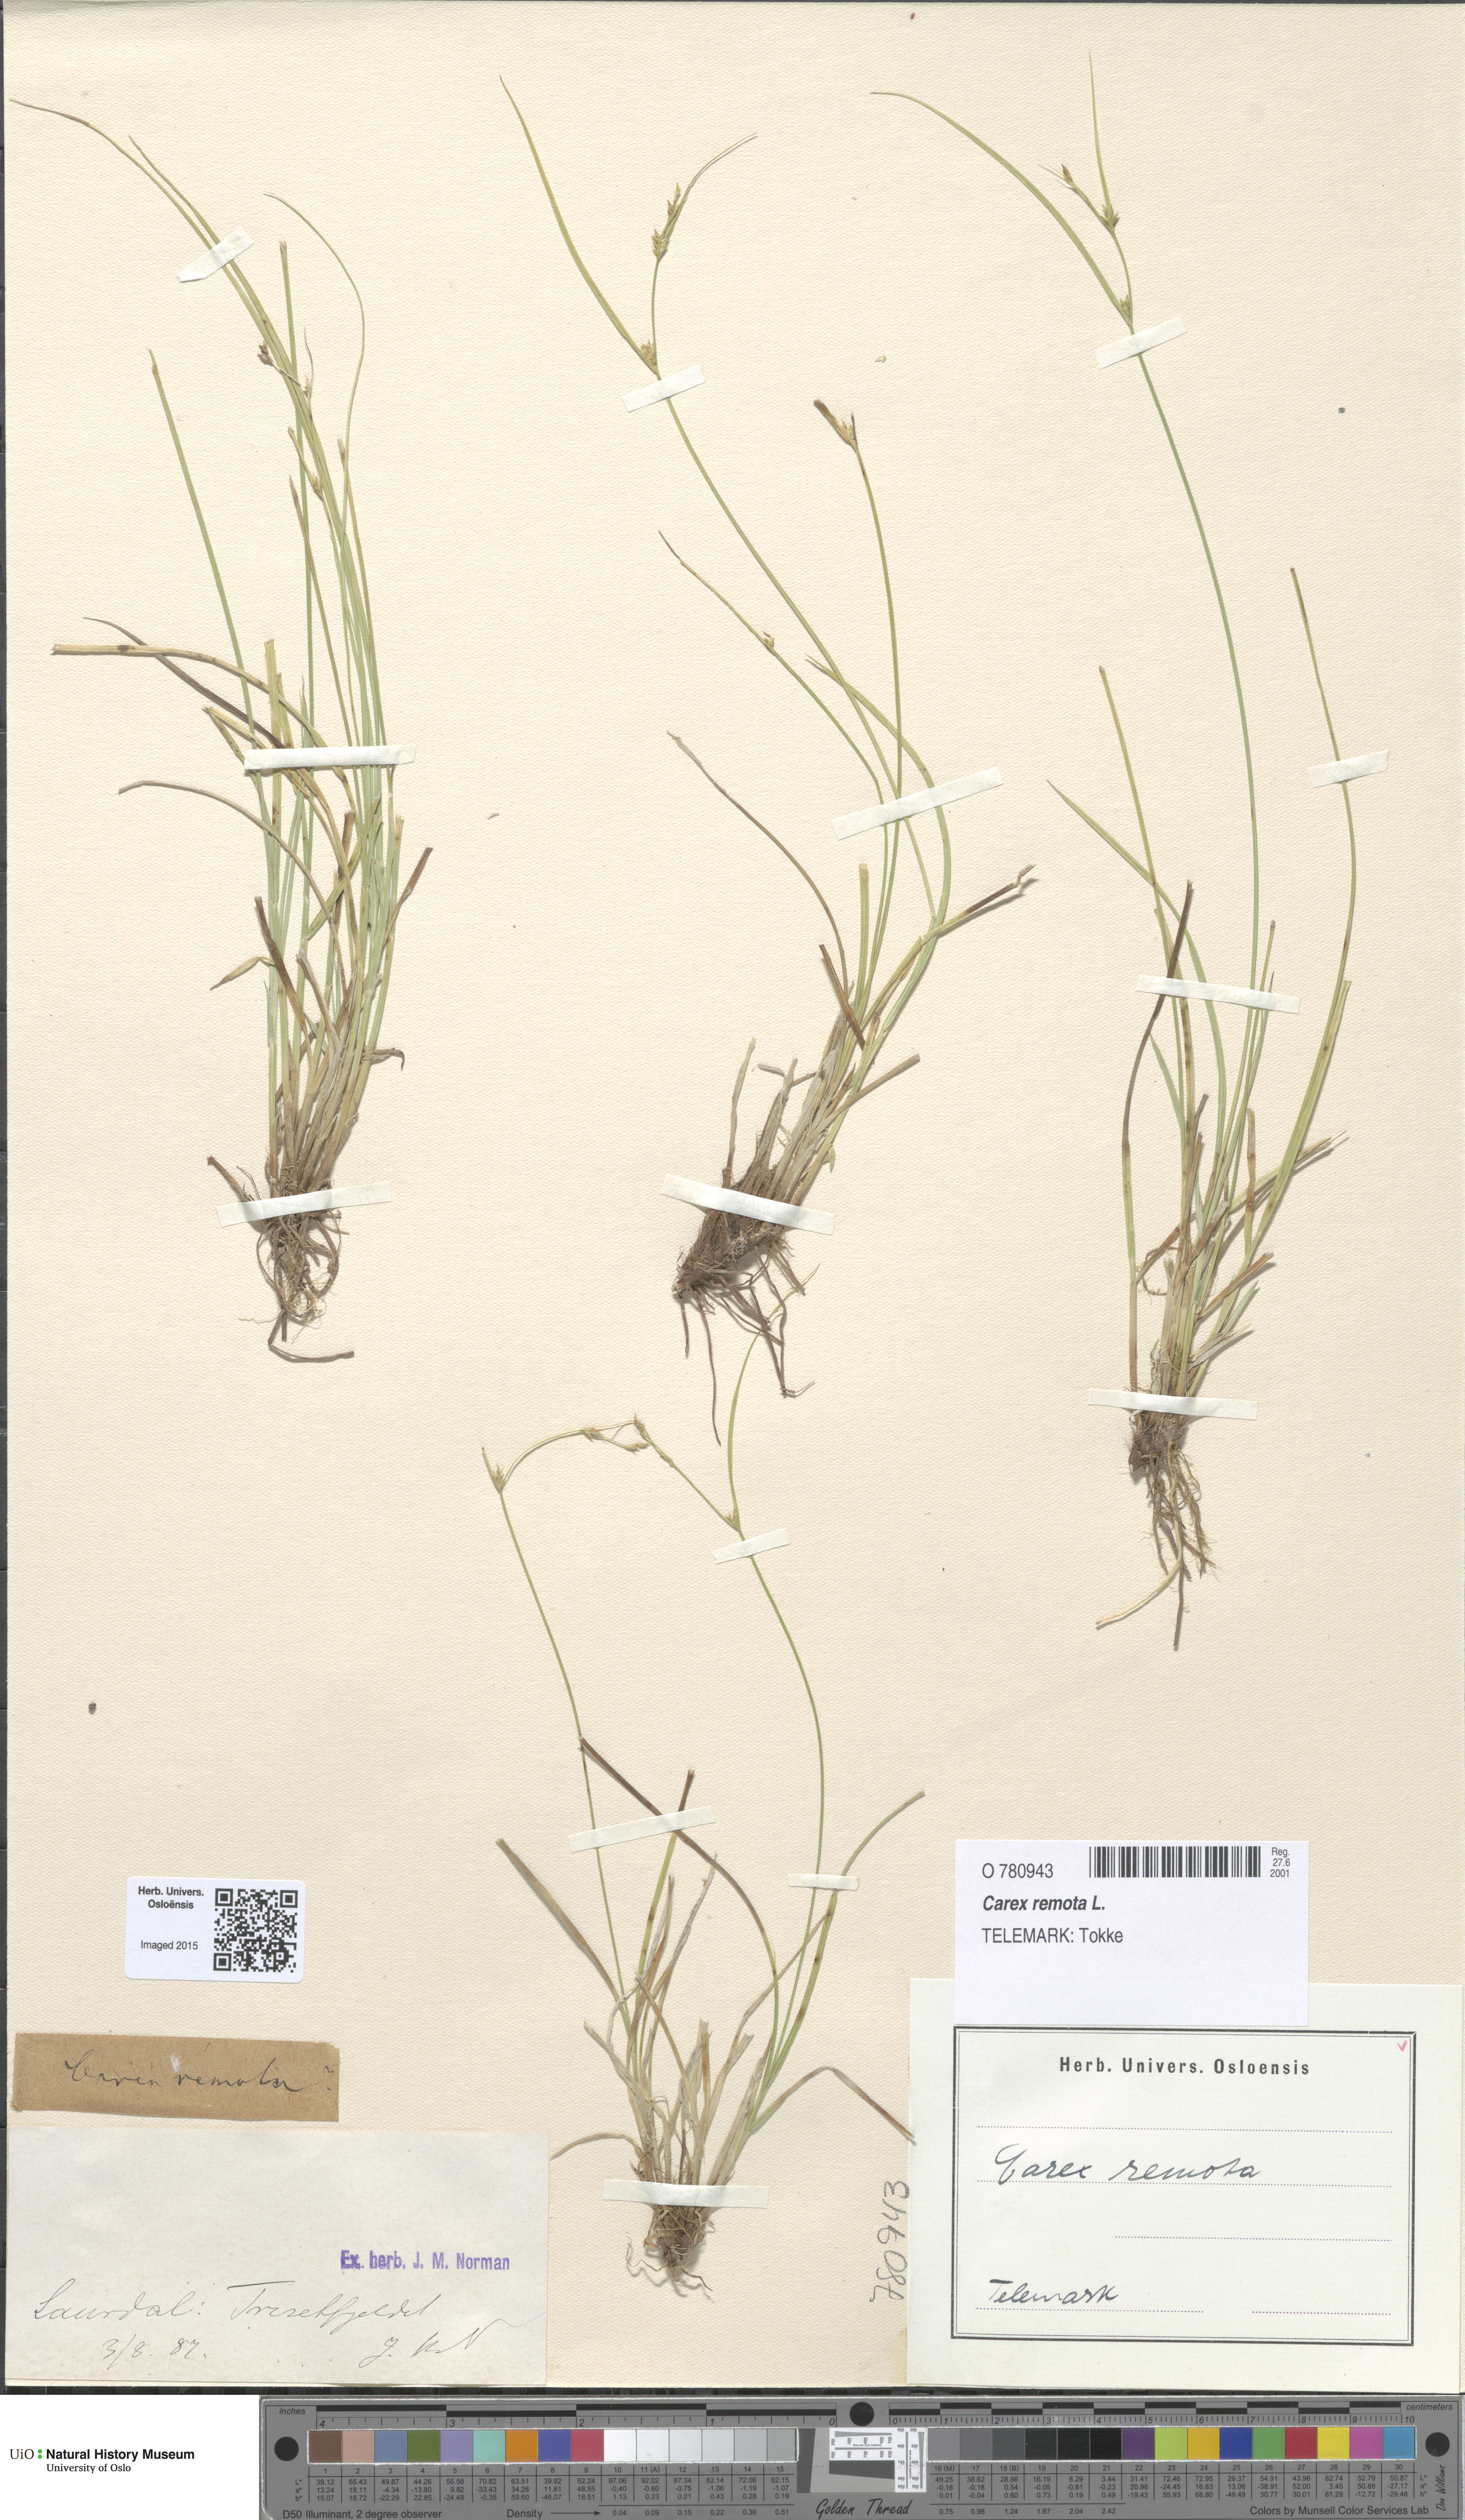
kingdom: Plantae
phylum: Tracheophyta
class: Liliopsida
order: Poales
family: Cyperaceae
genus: Carex
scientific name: Carex remota
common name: Remote sedge
